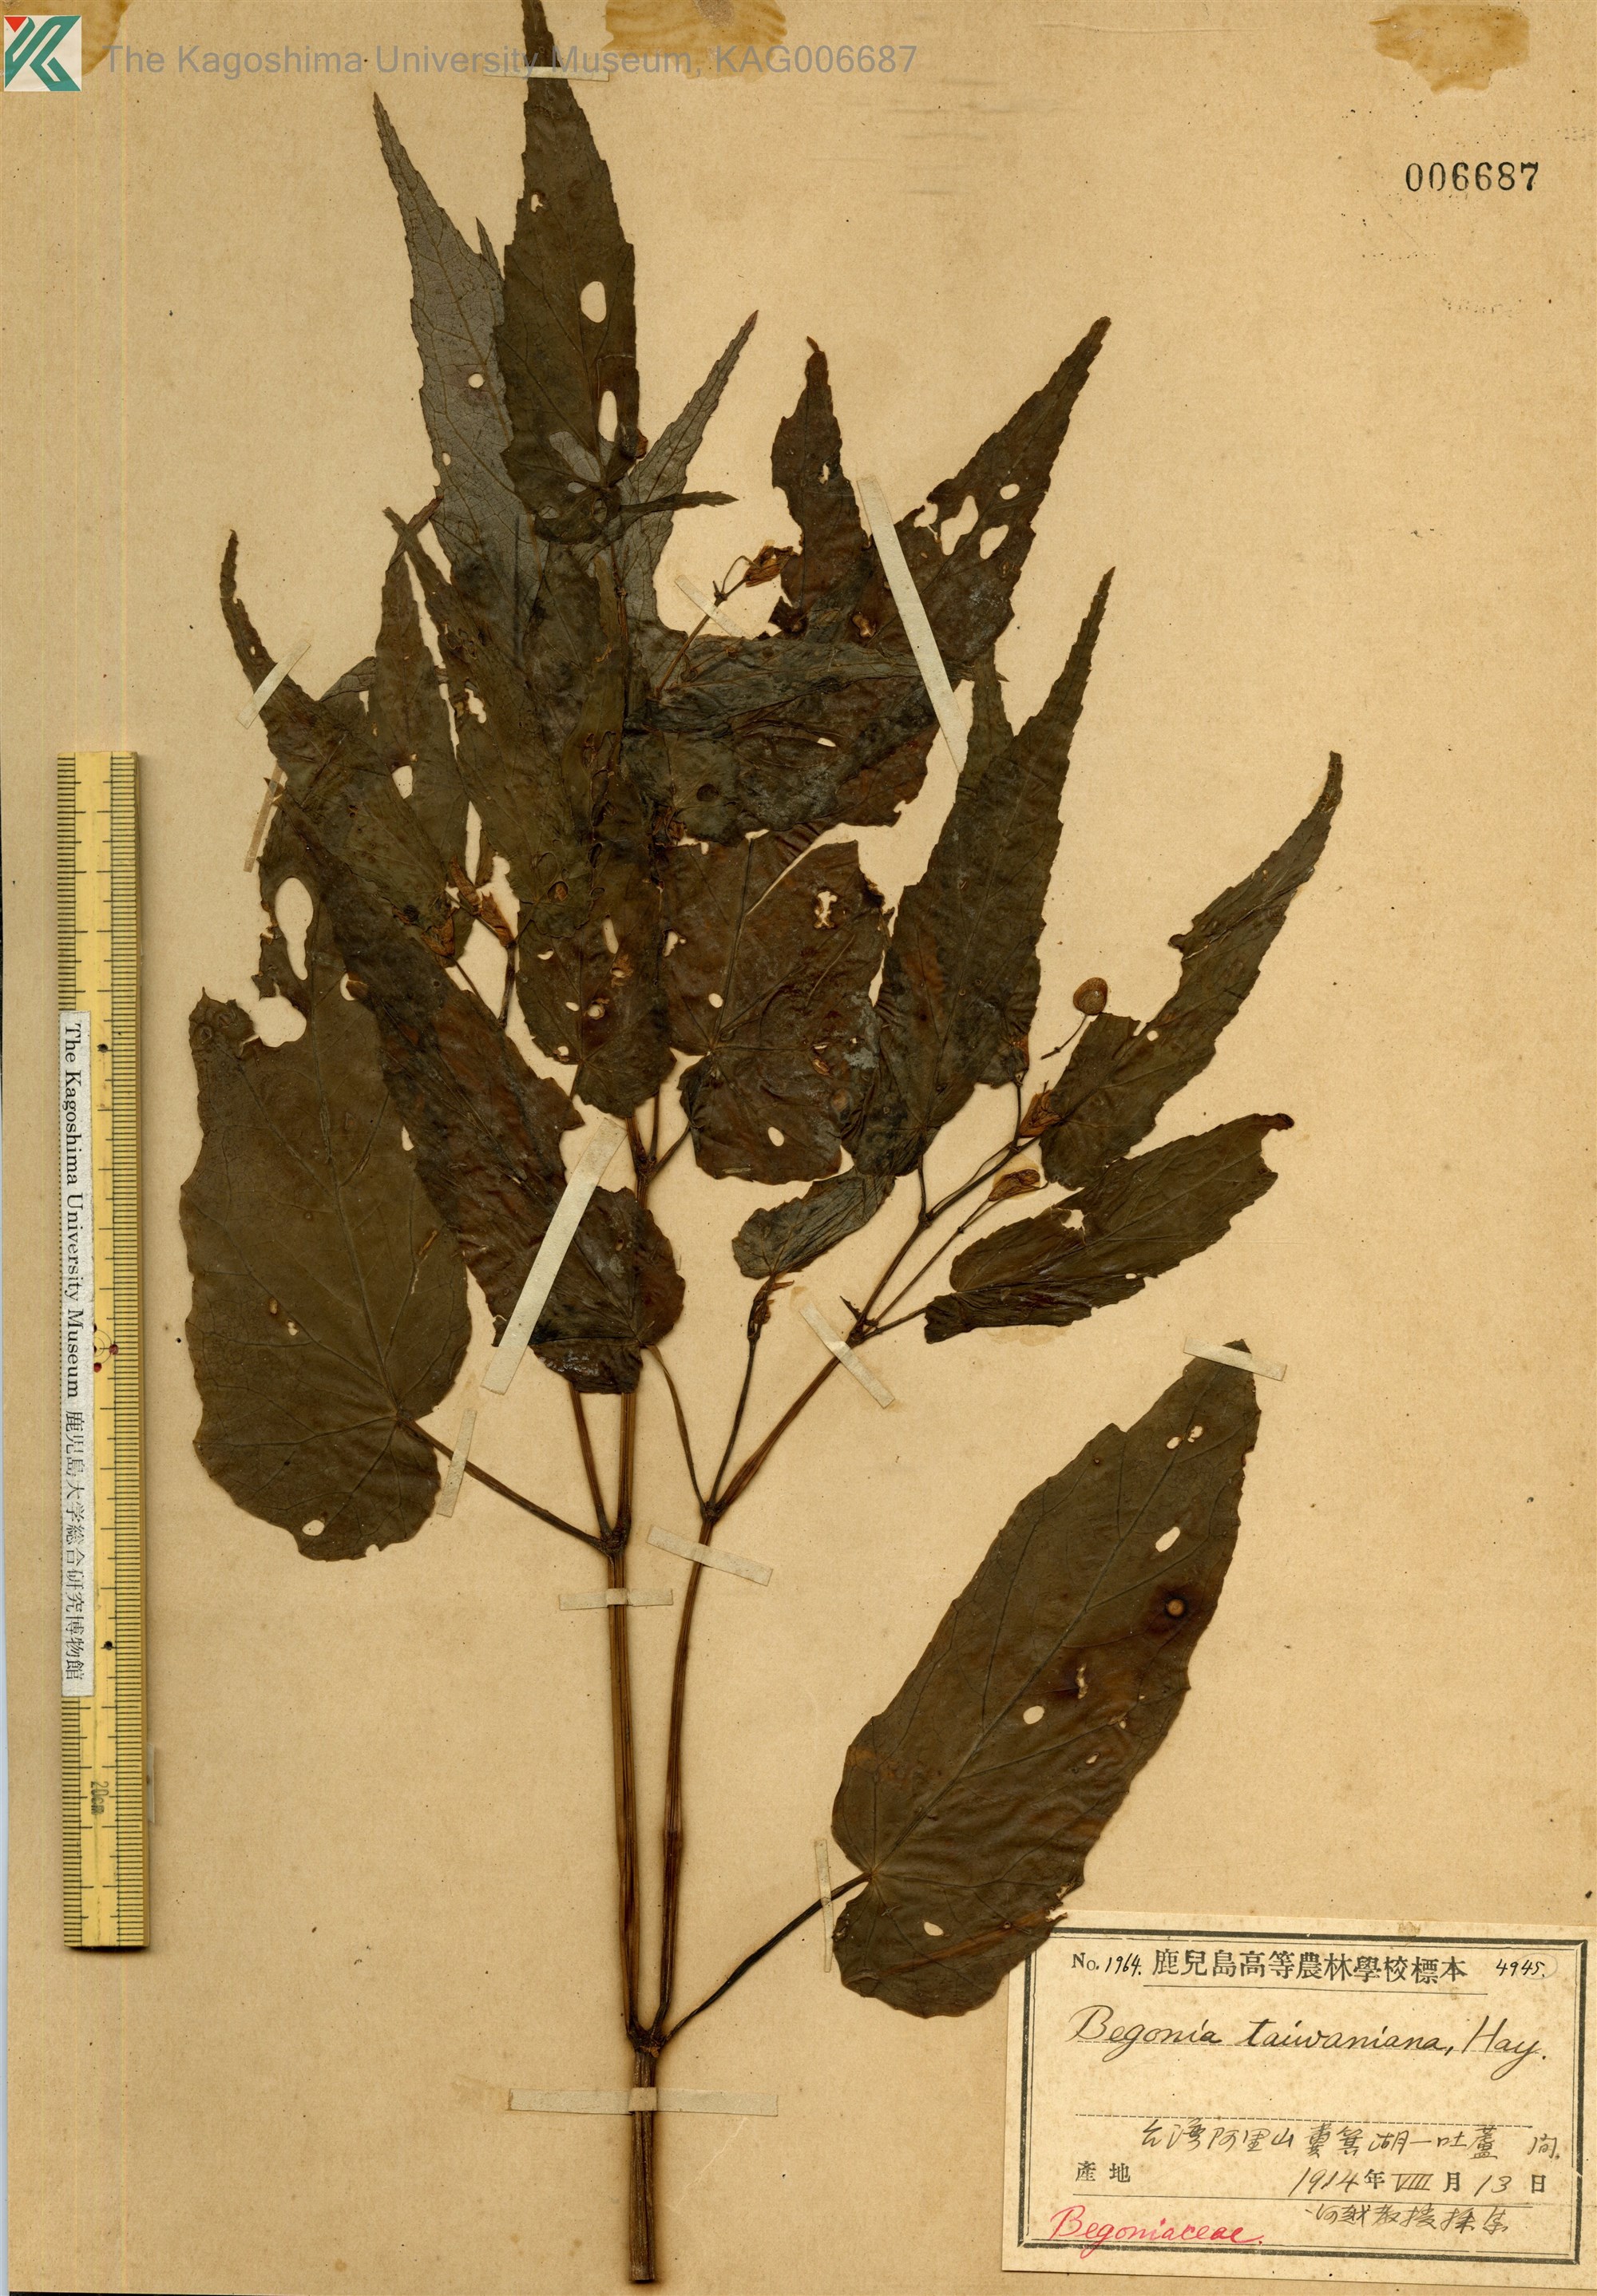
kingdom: Plantae
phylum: Tracheophyta
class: Magnoliopsida
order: Cucurbitales
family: Begoniaceae
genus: Begonia
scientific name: Begonia taiwaniana
